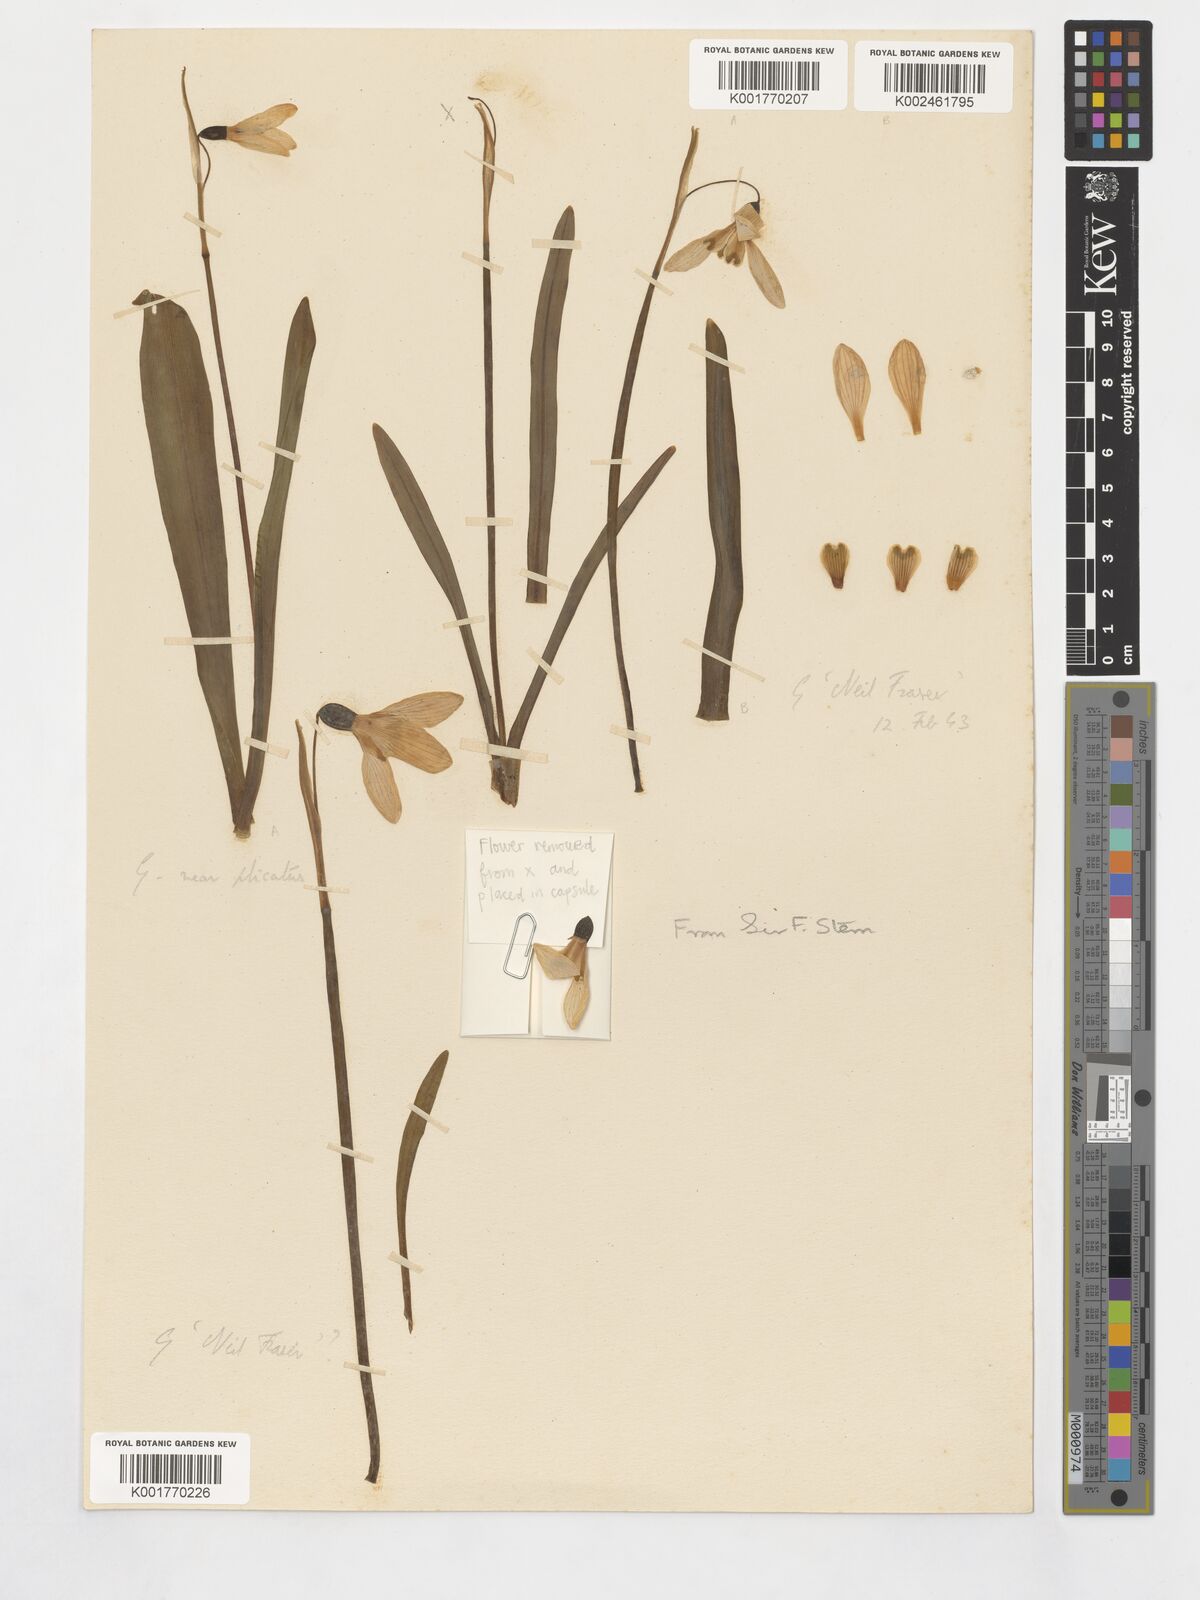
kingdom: Plantae
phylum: Tracheophyta
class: Liliopsida
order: Asparagales
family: Amaryllidaceae
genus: Galanthus
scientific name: Galanthus nivalis
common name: Snowdrop
